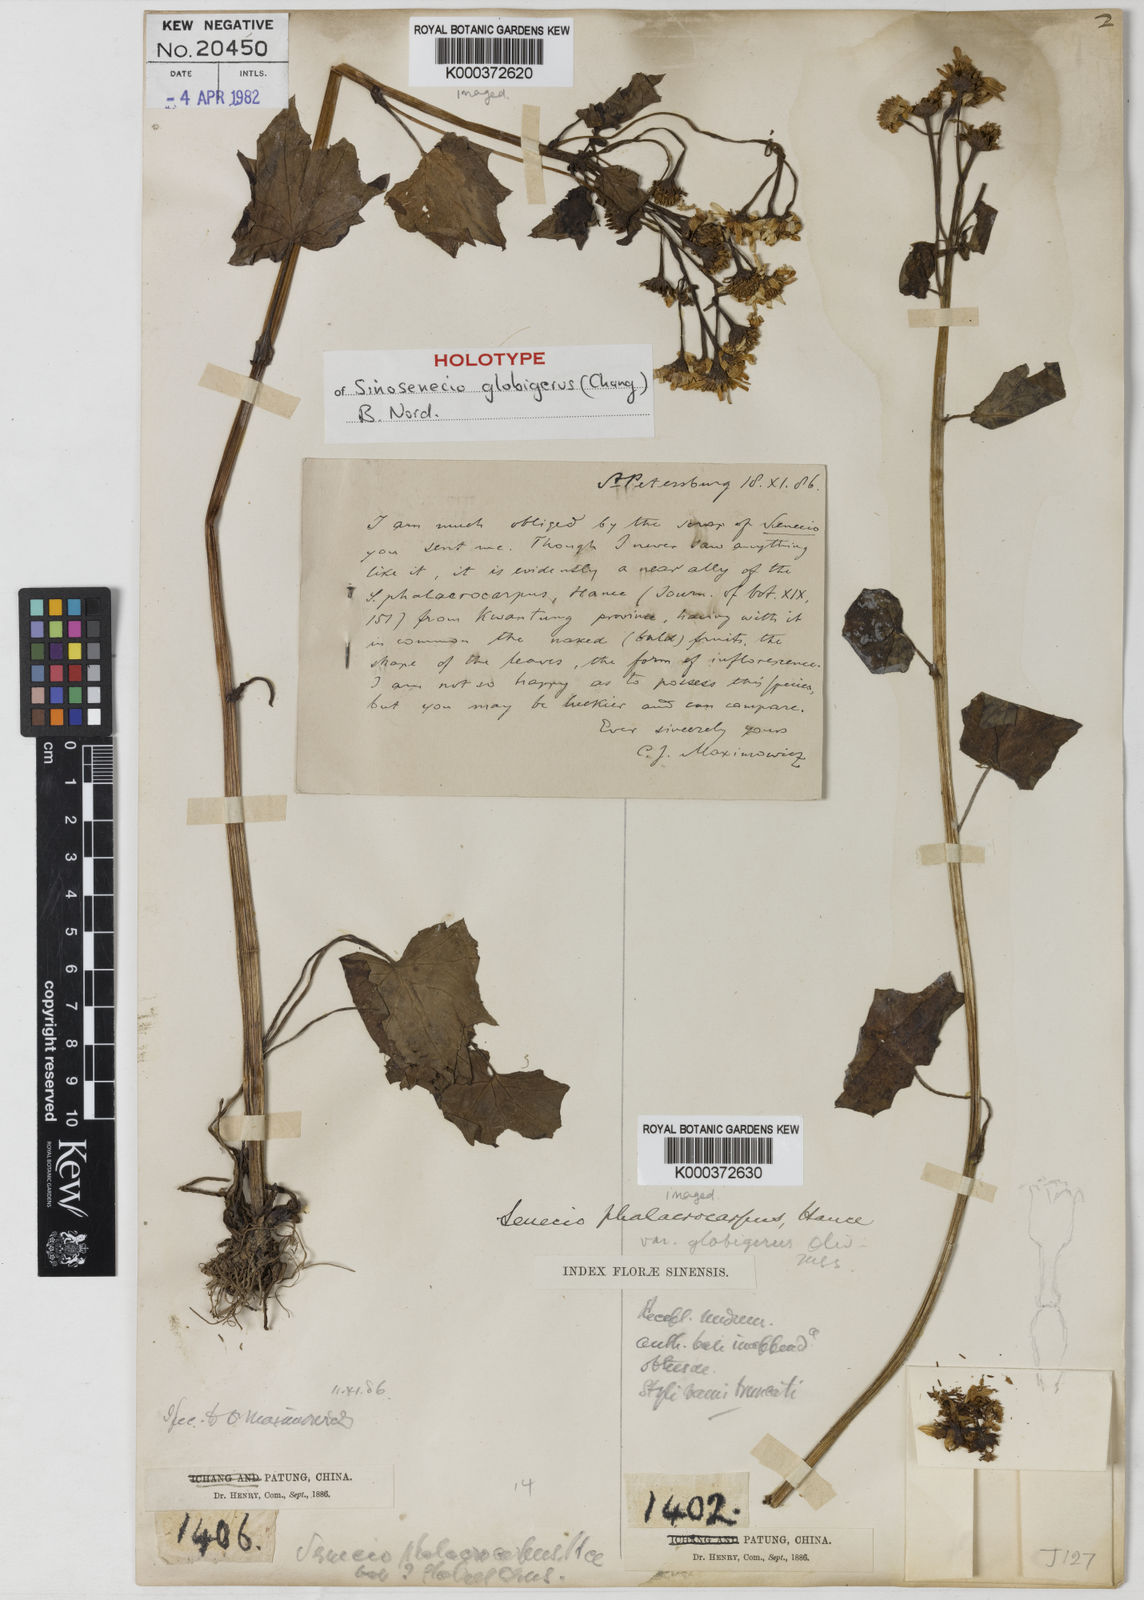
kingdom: Plantae
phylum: Tracheophyta
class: Magnoliopsida
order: Asterales
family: Asteraceae
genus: Sinosenecio
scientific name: Sinosenecio globiger
